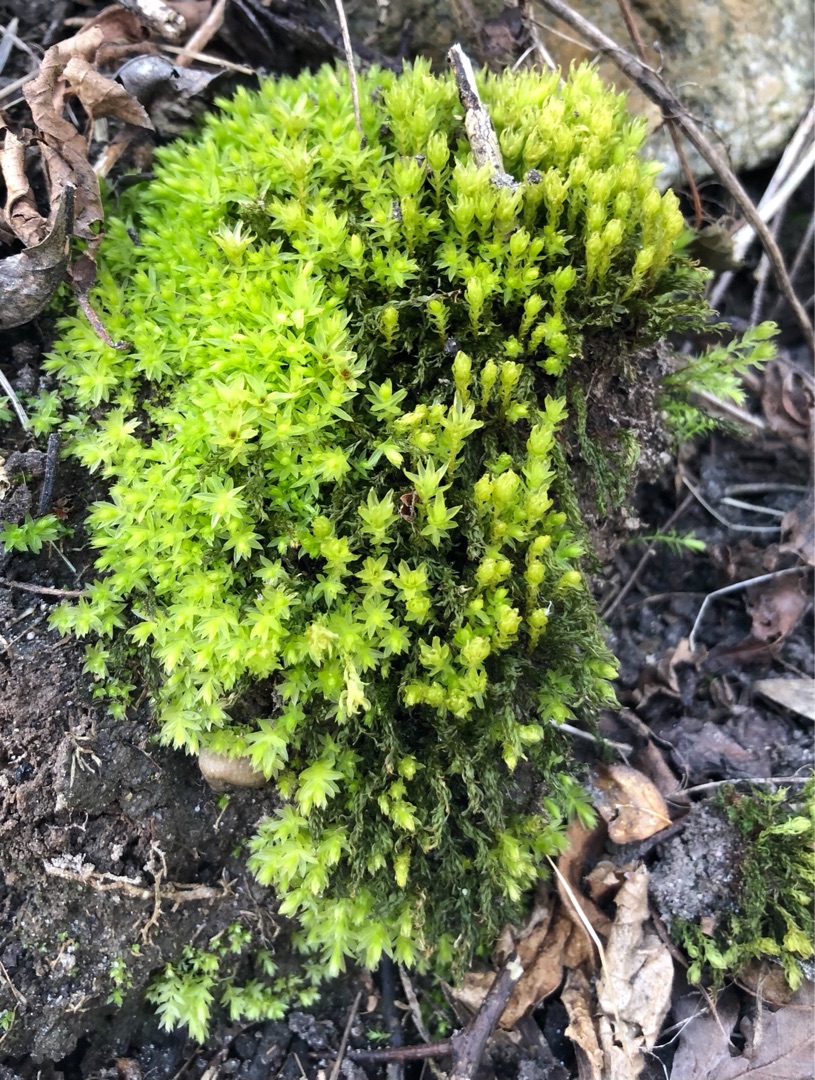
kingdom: Plantae
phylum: Bryophyta
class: Bryopsida
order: Bryales
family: Mniaceae
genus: Mnium
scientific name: Mnium hornum
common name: Brunfiltet stjernemos
